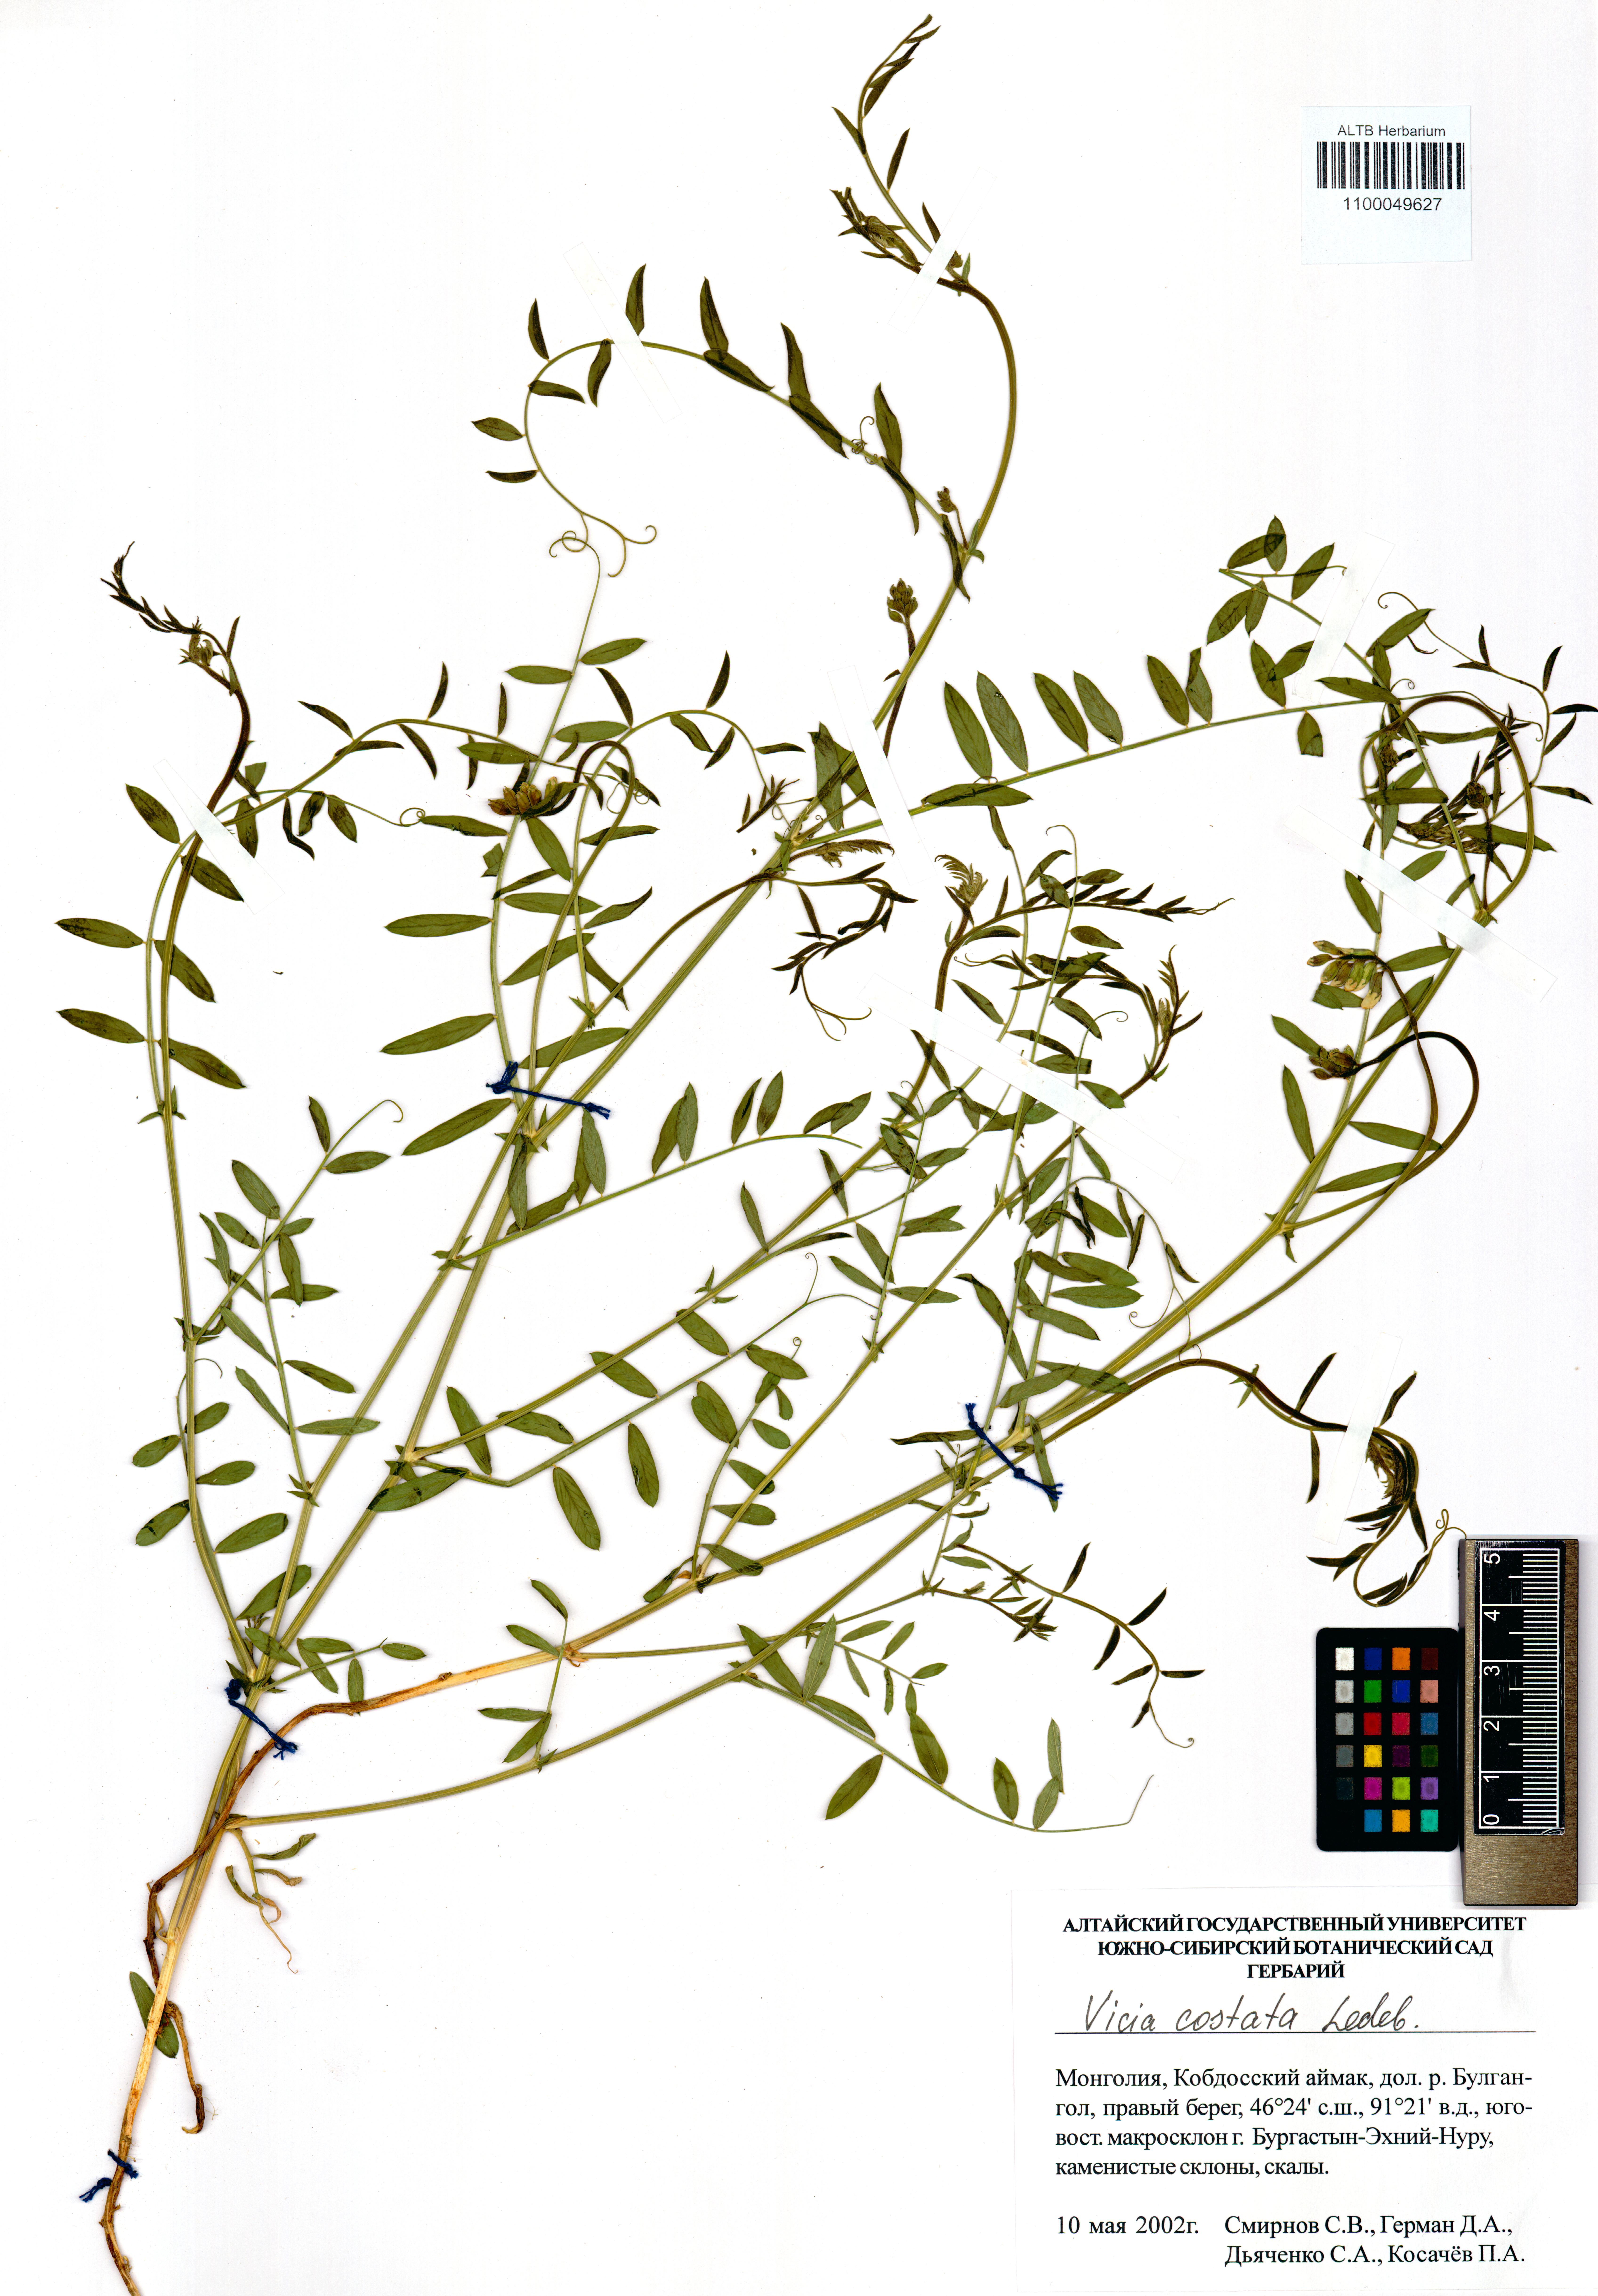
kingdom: Plantae
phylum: Tracheophyta
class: Magnoliopsida
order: Fabales
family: Fabaceae
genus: Vicia
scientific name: Vicia costata
